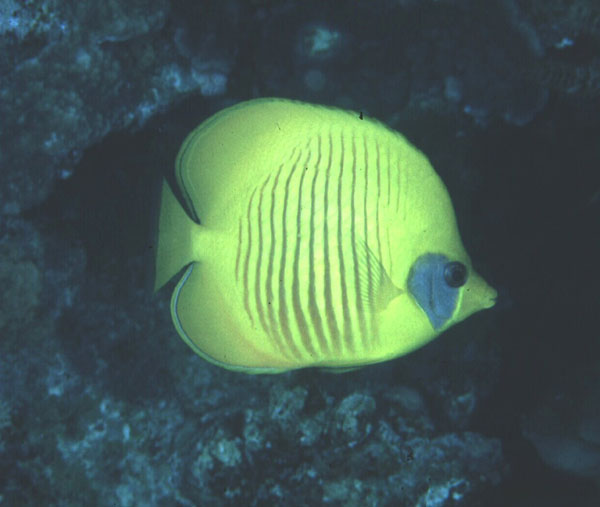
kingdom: Animalia
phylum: Chordata
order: Perciformes
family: Chaetodontidae
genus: Chaetodon
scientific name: Chaetodon semilarvatus
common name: Golden butterflyfish
